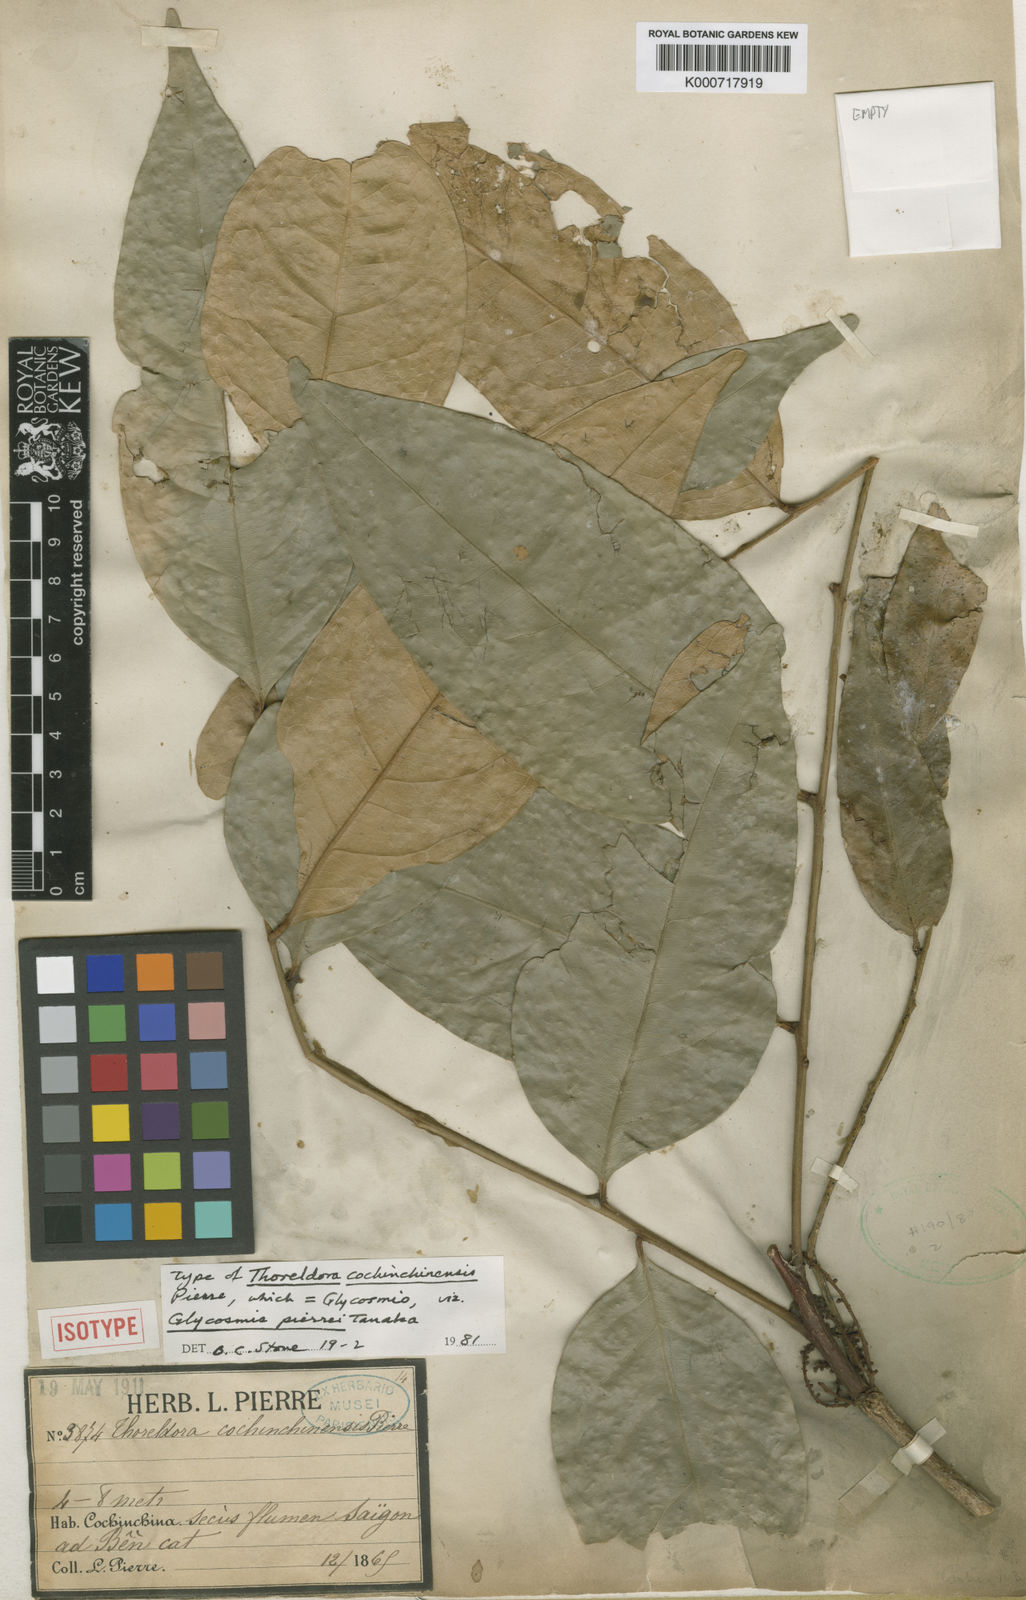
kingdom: Plantae
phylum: Tracheophyta
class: Magnoliopsida
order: Sapindales
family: Rutaceae
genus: Glycosmis
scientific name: Glycosmis pierrei
